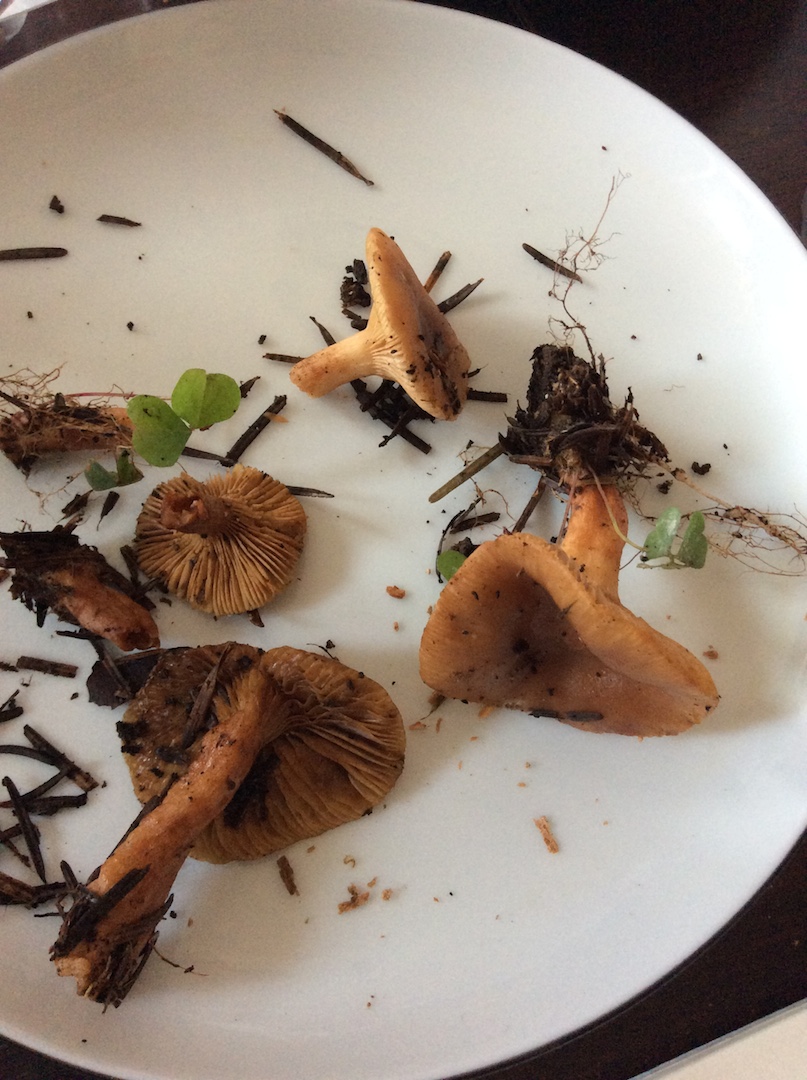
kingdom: Fungi
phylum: Basidiomycota
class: Agaricomycetes
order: Russulales
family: Russulaceae
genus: Lactarius
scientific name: Lactarius tabidus
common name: rynket mælkehat
